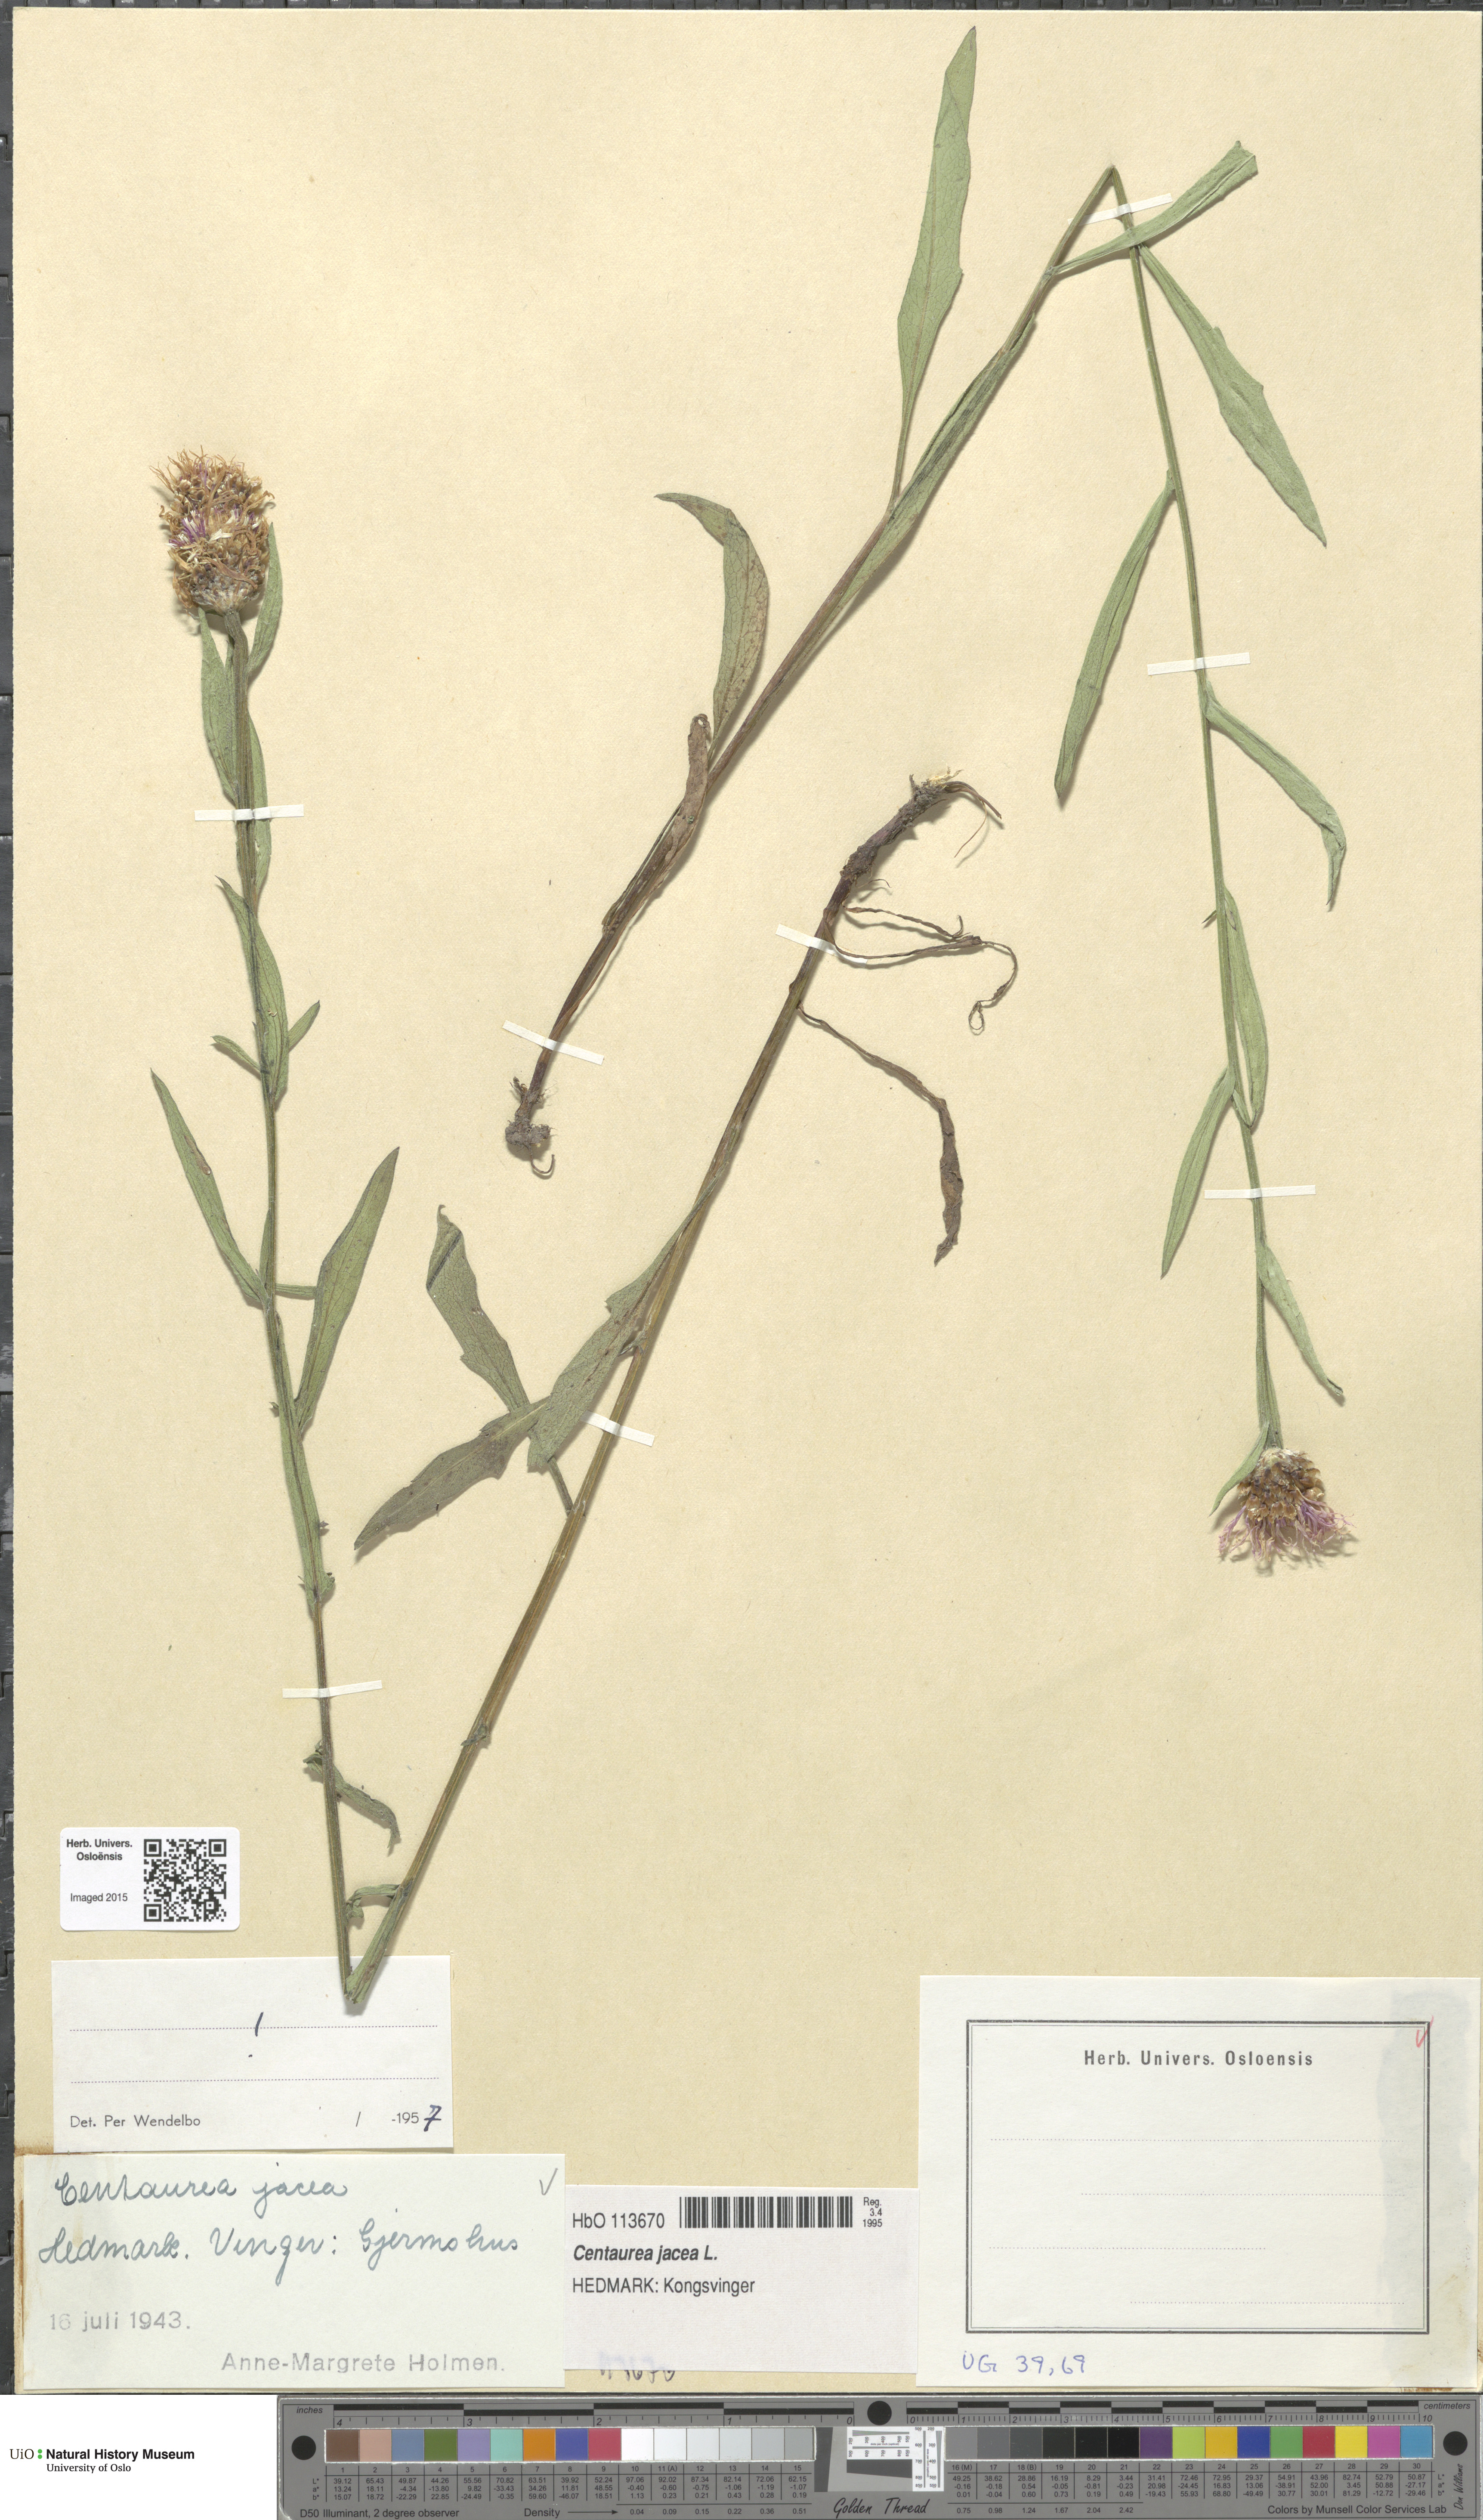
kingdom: Plantae
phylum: Tracheophyta
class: Magnoliopsida
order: Asterales
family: Asteraceae
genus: Centaurea
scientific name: Centaurea jacea
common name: Brown knapweed
